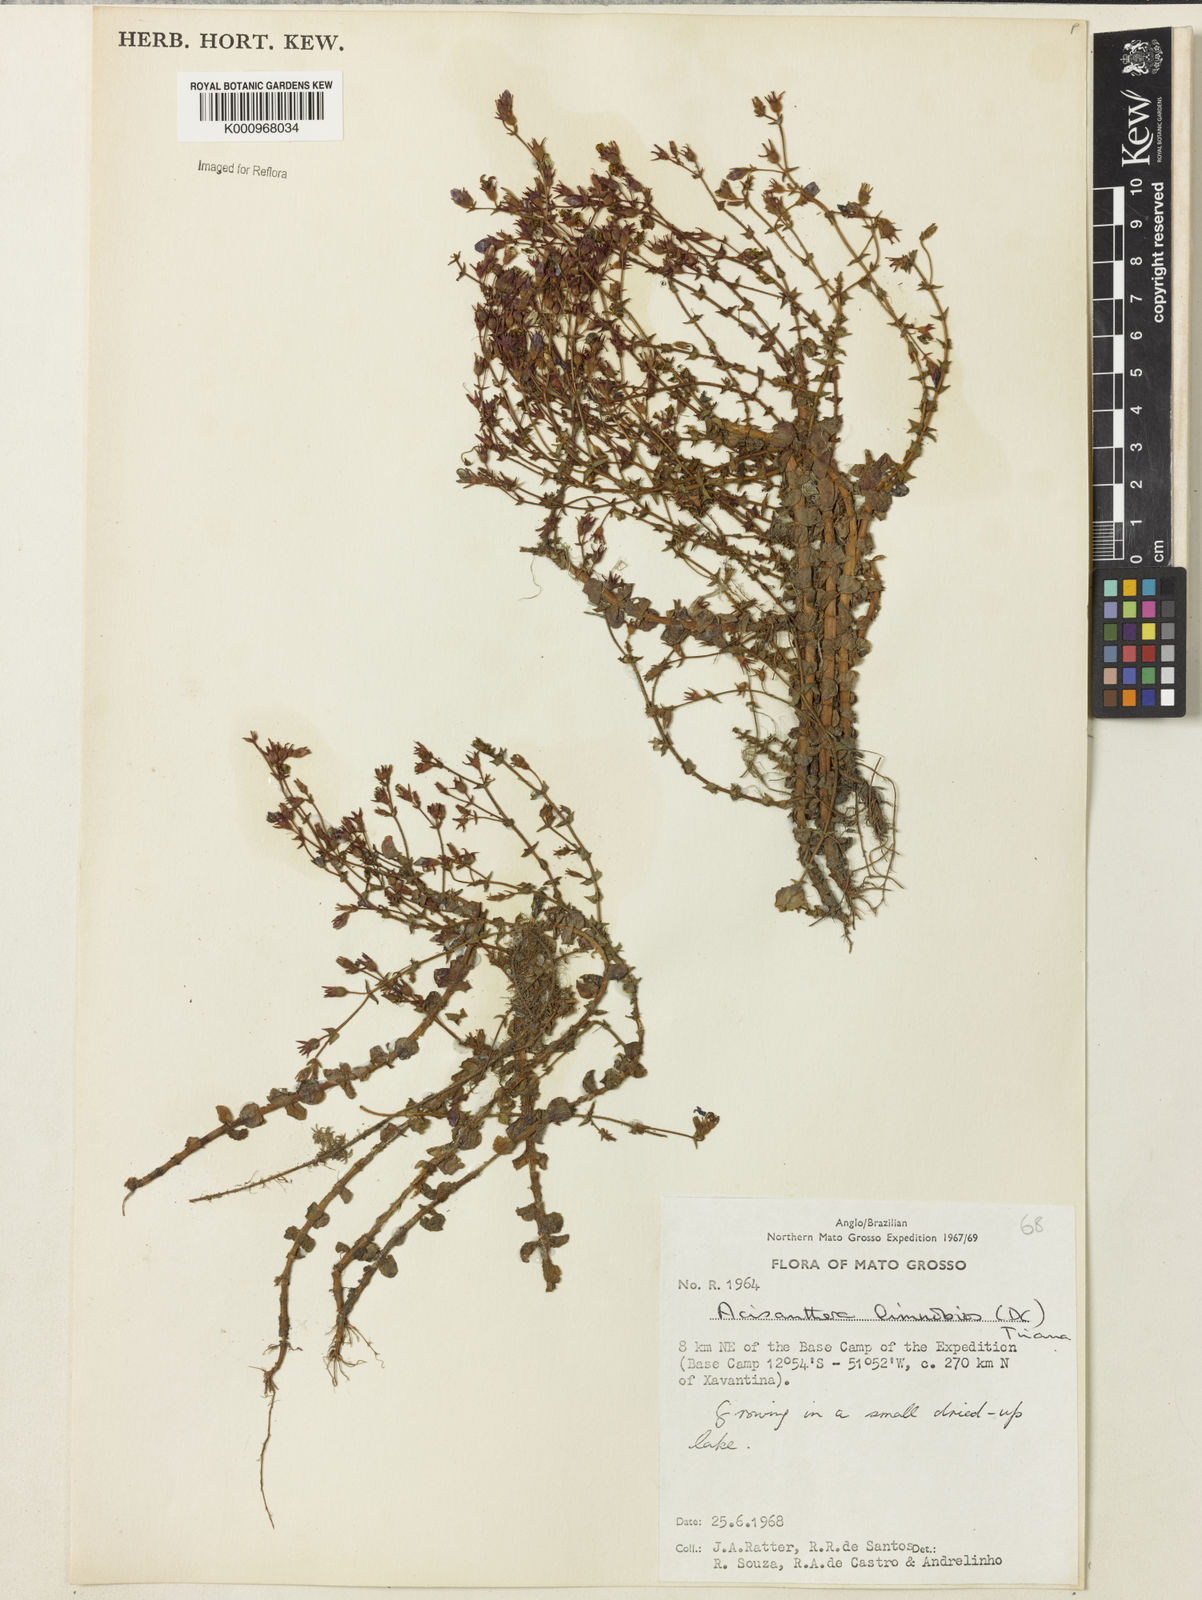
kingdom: Plantae
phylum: Tracheophyta
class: Magnoliopsida
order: Myrtales
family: Melastomataceae
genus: Acisanthera
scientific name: Acisanthera
